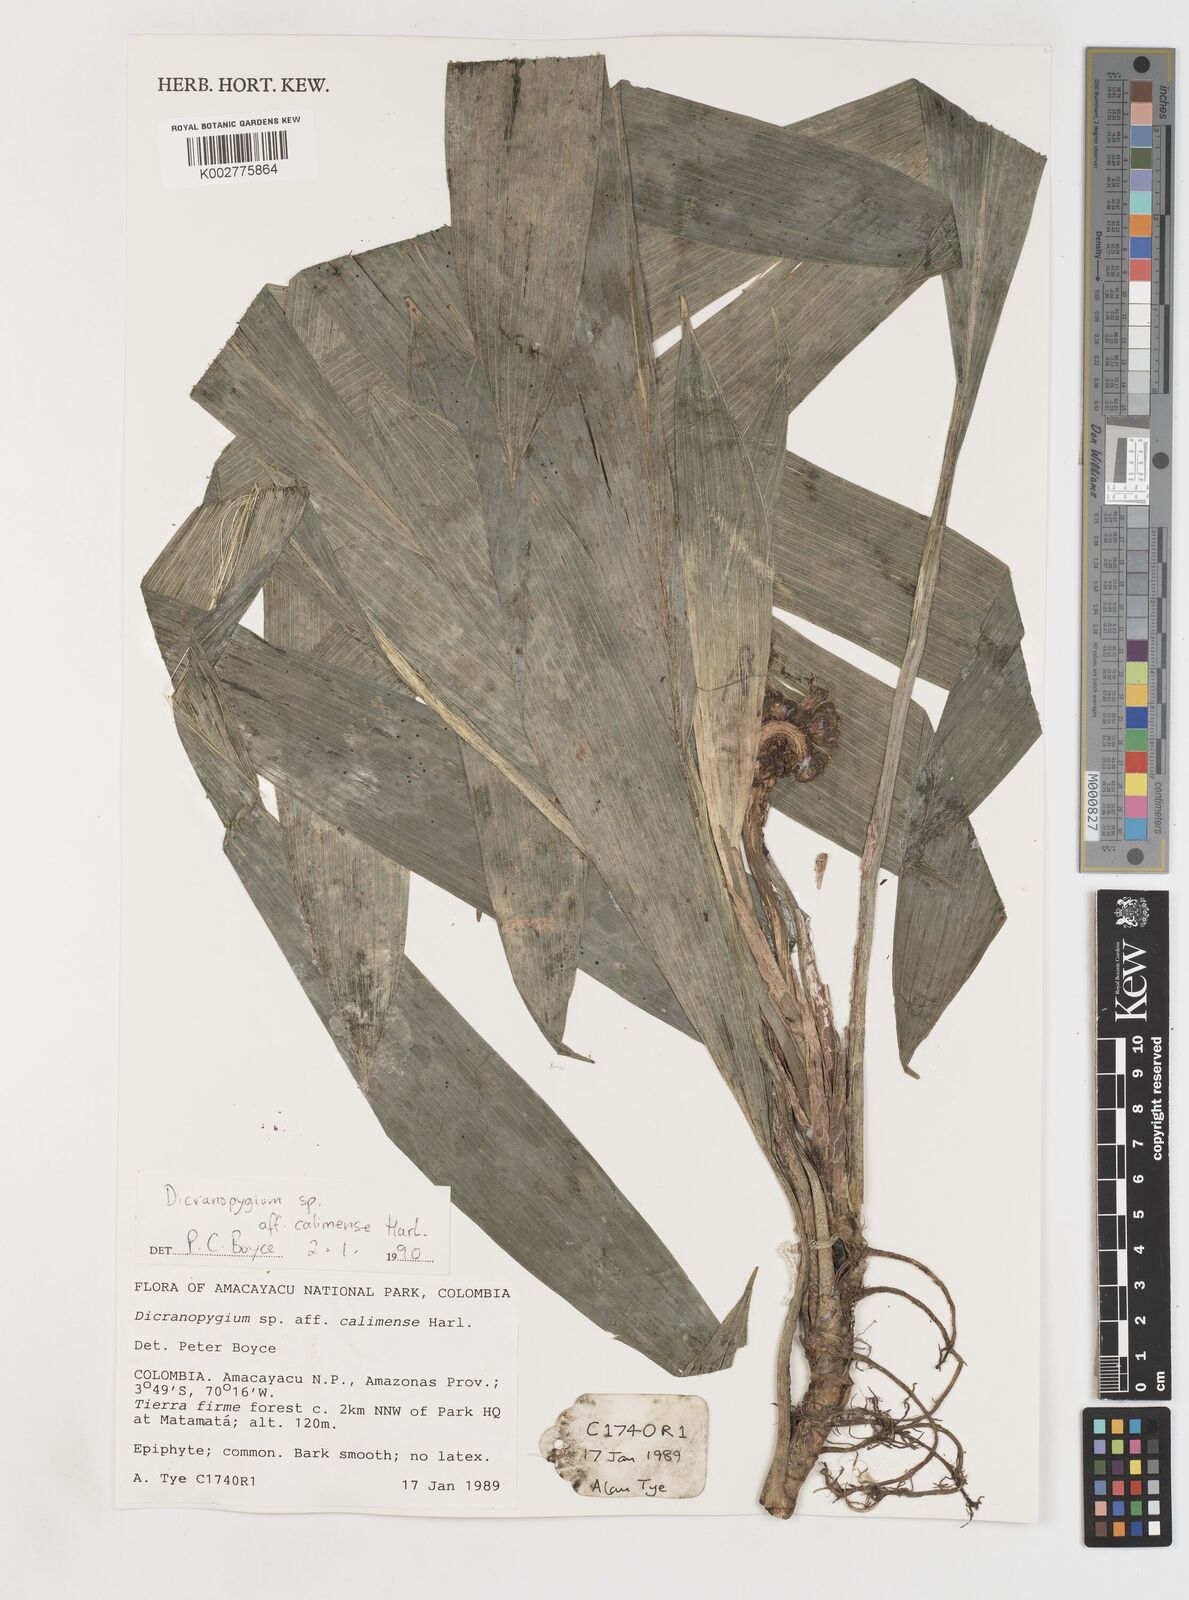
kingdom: Plantae
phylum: Tracheophyta
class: Liliopsida
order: Pandanales
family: Cyclanthaceae
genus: Dicranopygium
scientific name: Dicranopygium calimense
